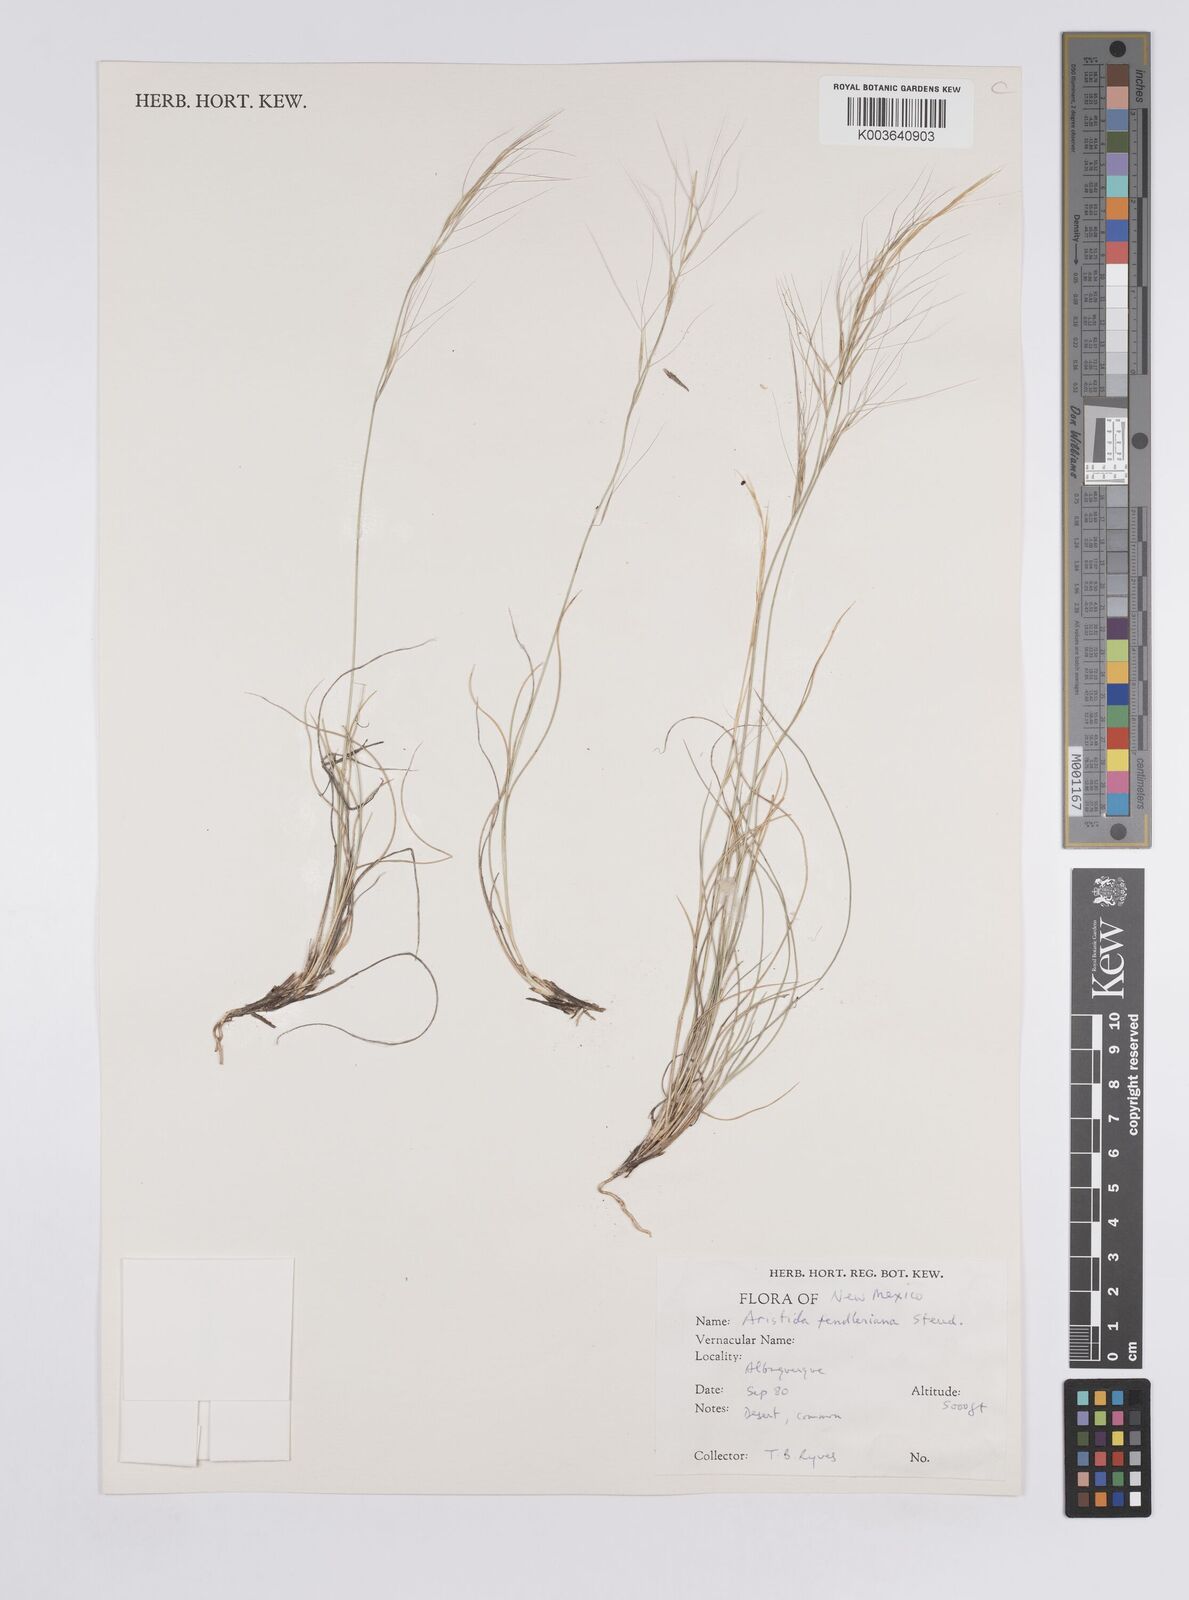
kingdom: Plantae
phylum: Tracheophyta
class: Liliopsida
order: Poales
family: Poaceae
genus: Aristida
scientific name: Aristida purpurea
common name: Purple threeawn
